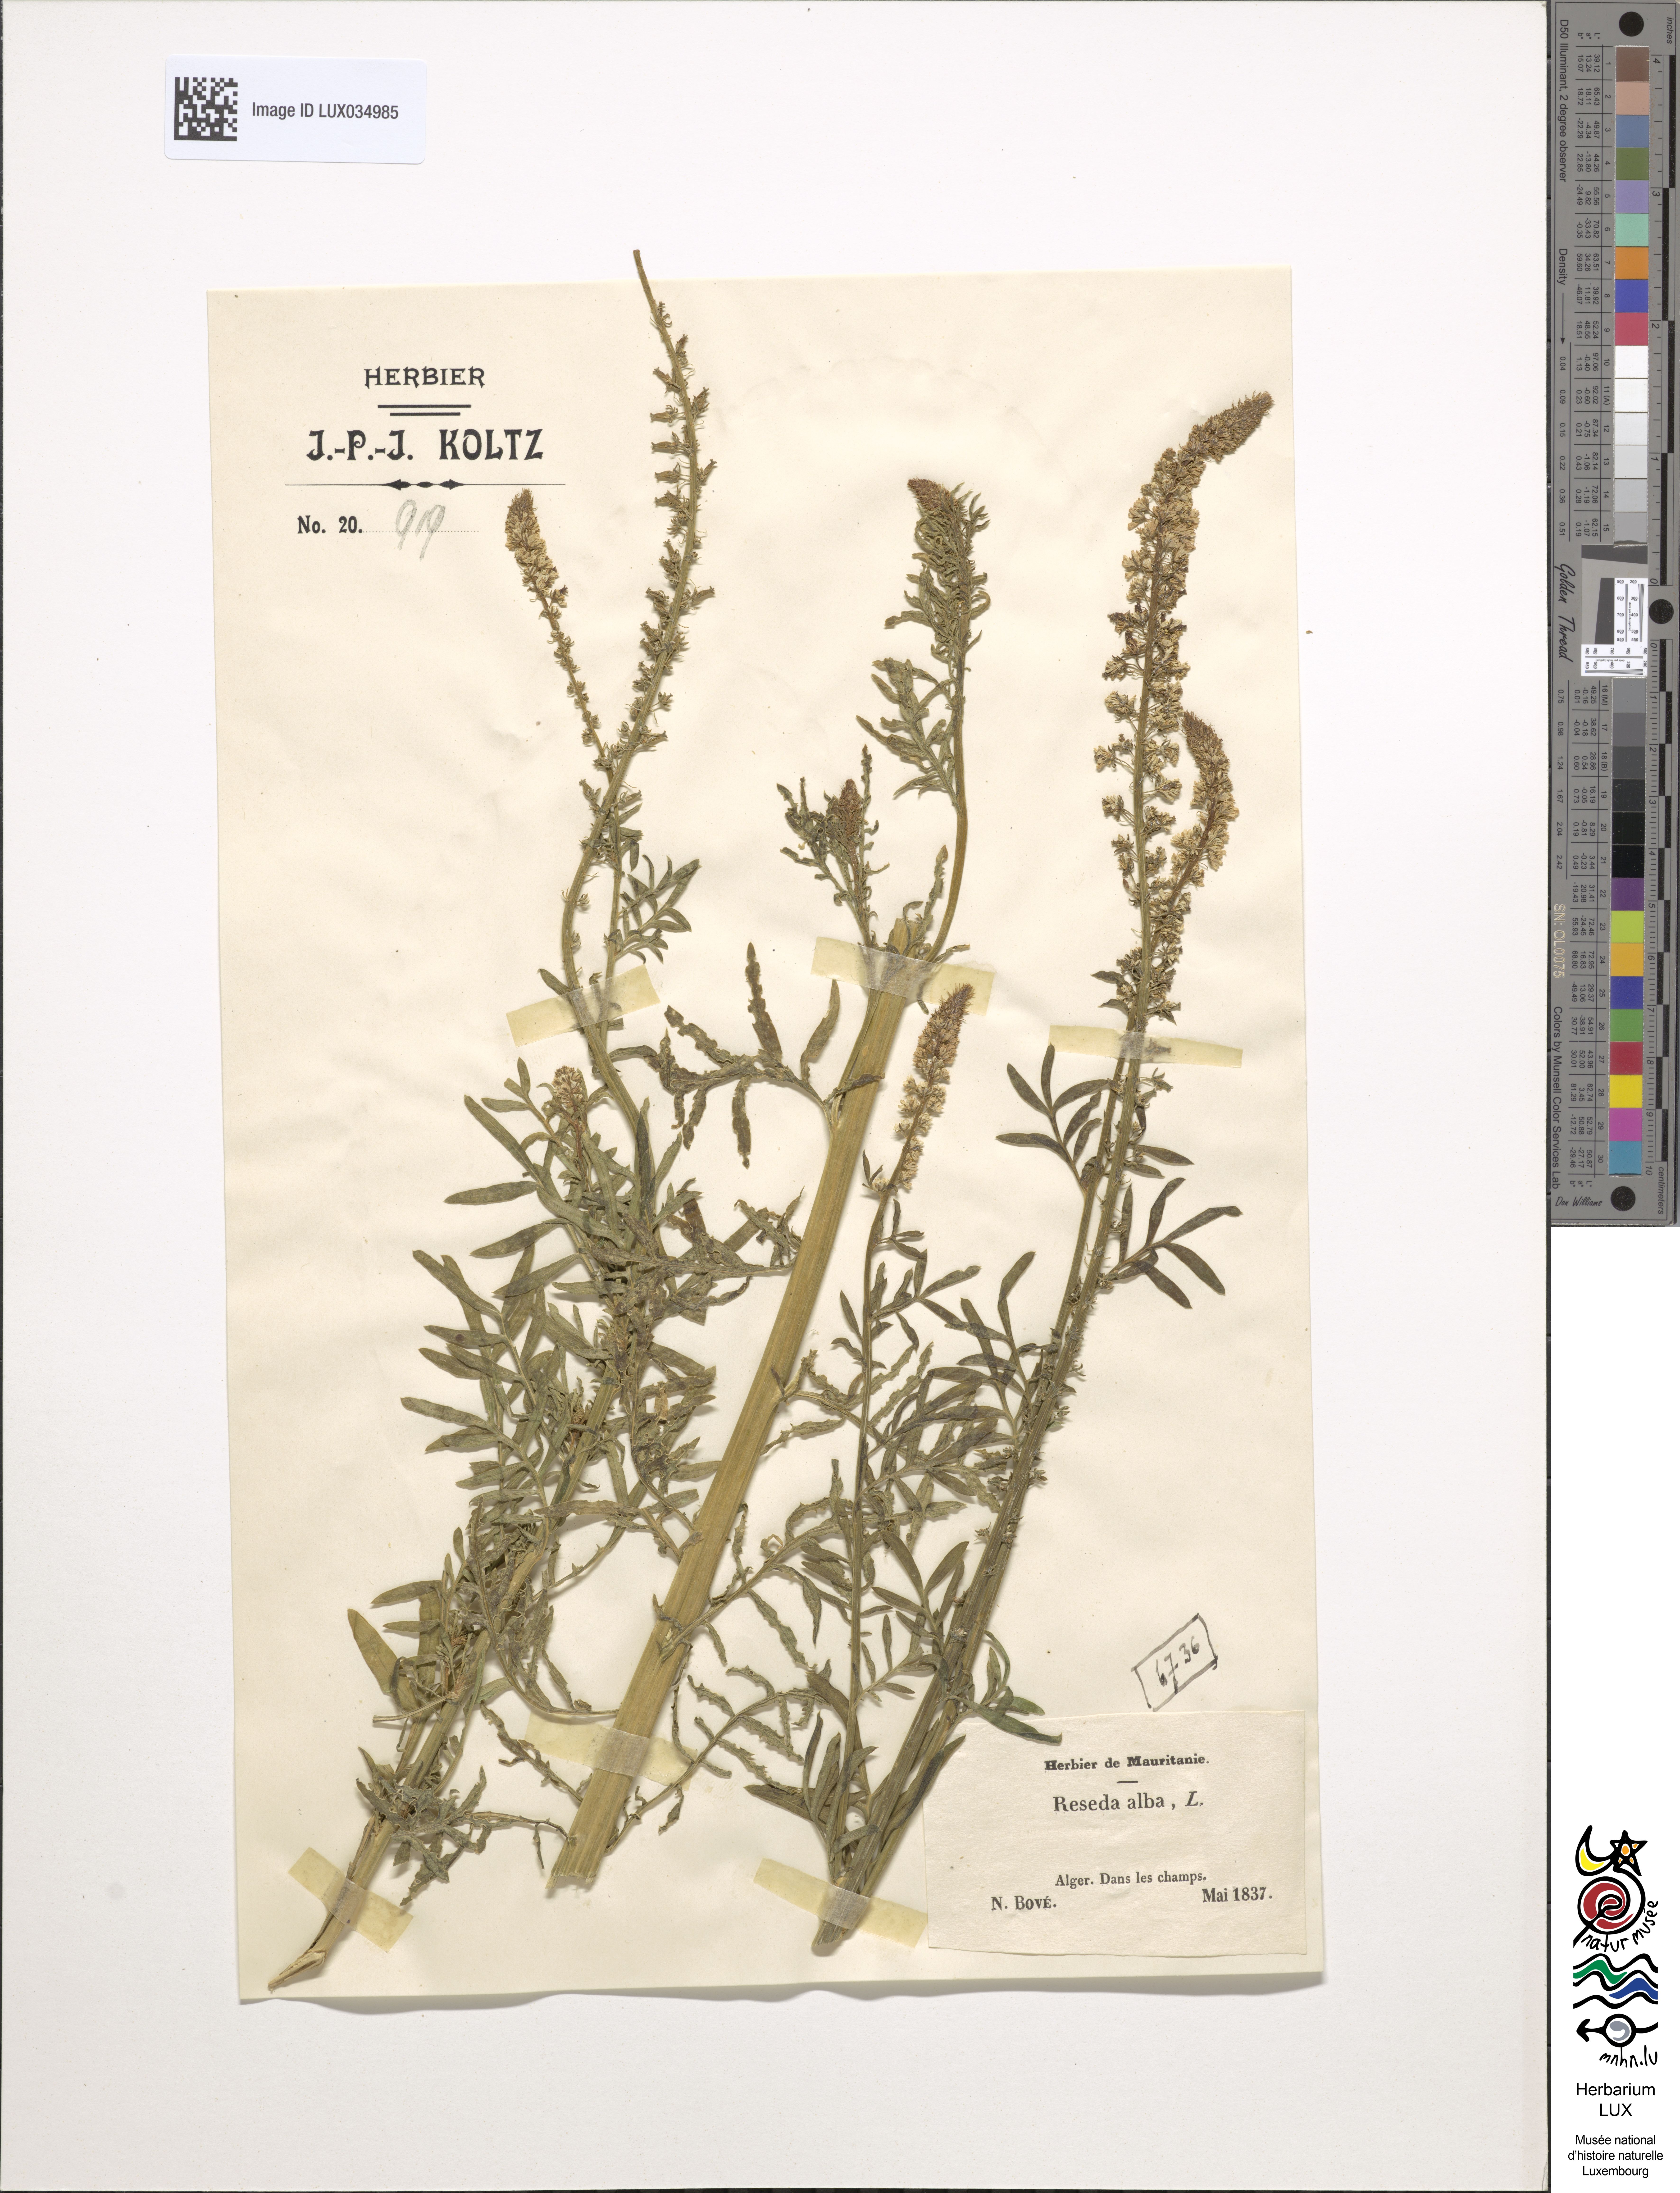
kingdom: Plantae
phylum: Tracheophyta
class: Magnoliopsida
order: Brassicales
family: Resedaceae
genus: Reseda
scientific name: Reseda alba
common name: White mignonette
